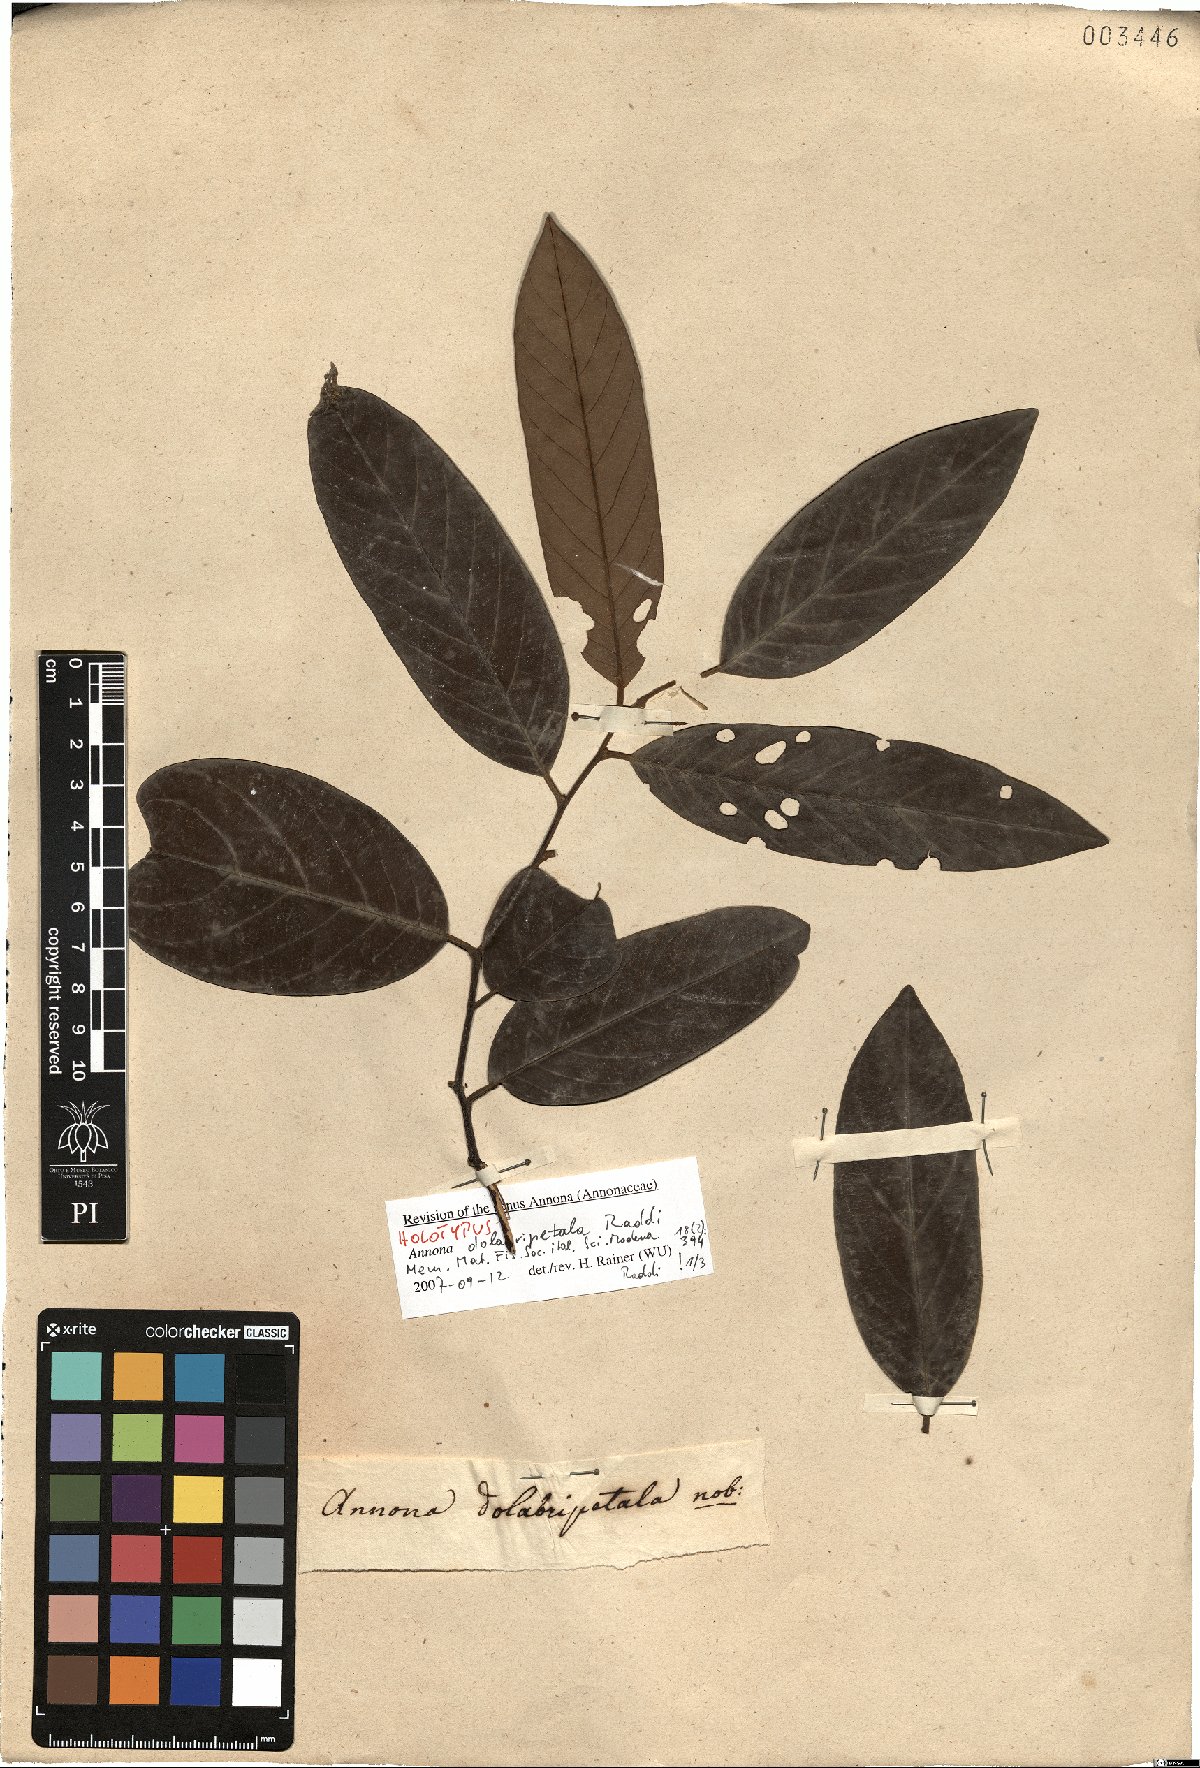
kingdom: Plantae
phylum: Tracheophyta
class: Magnoliopsida
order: Magnoliales
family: Annonaceae
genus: Annona
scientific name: Annona dolabripetala
